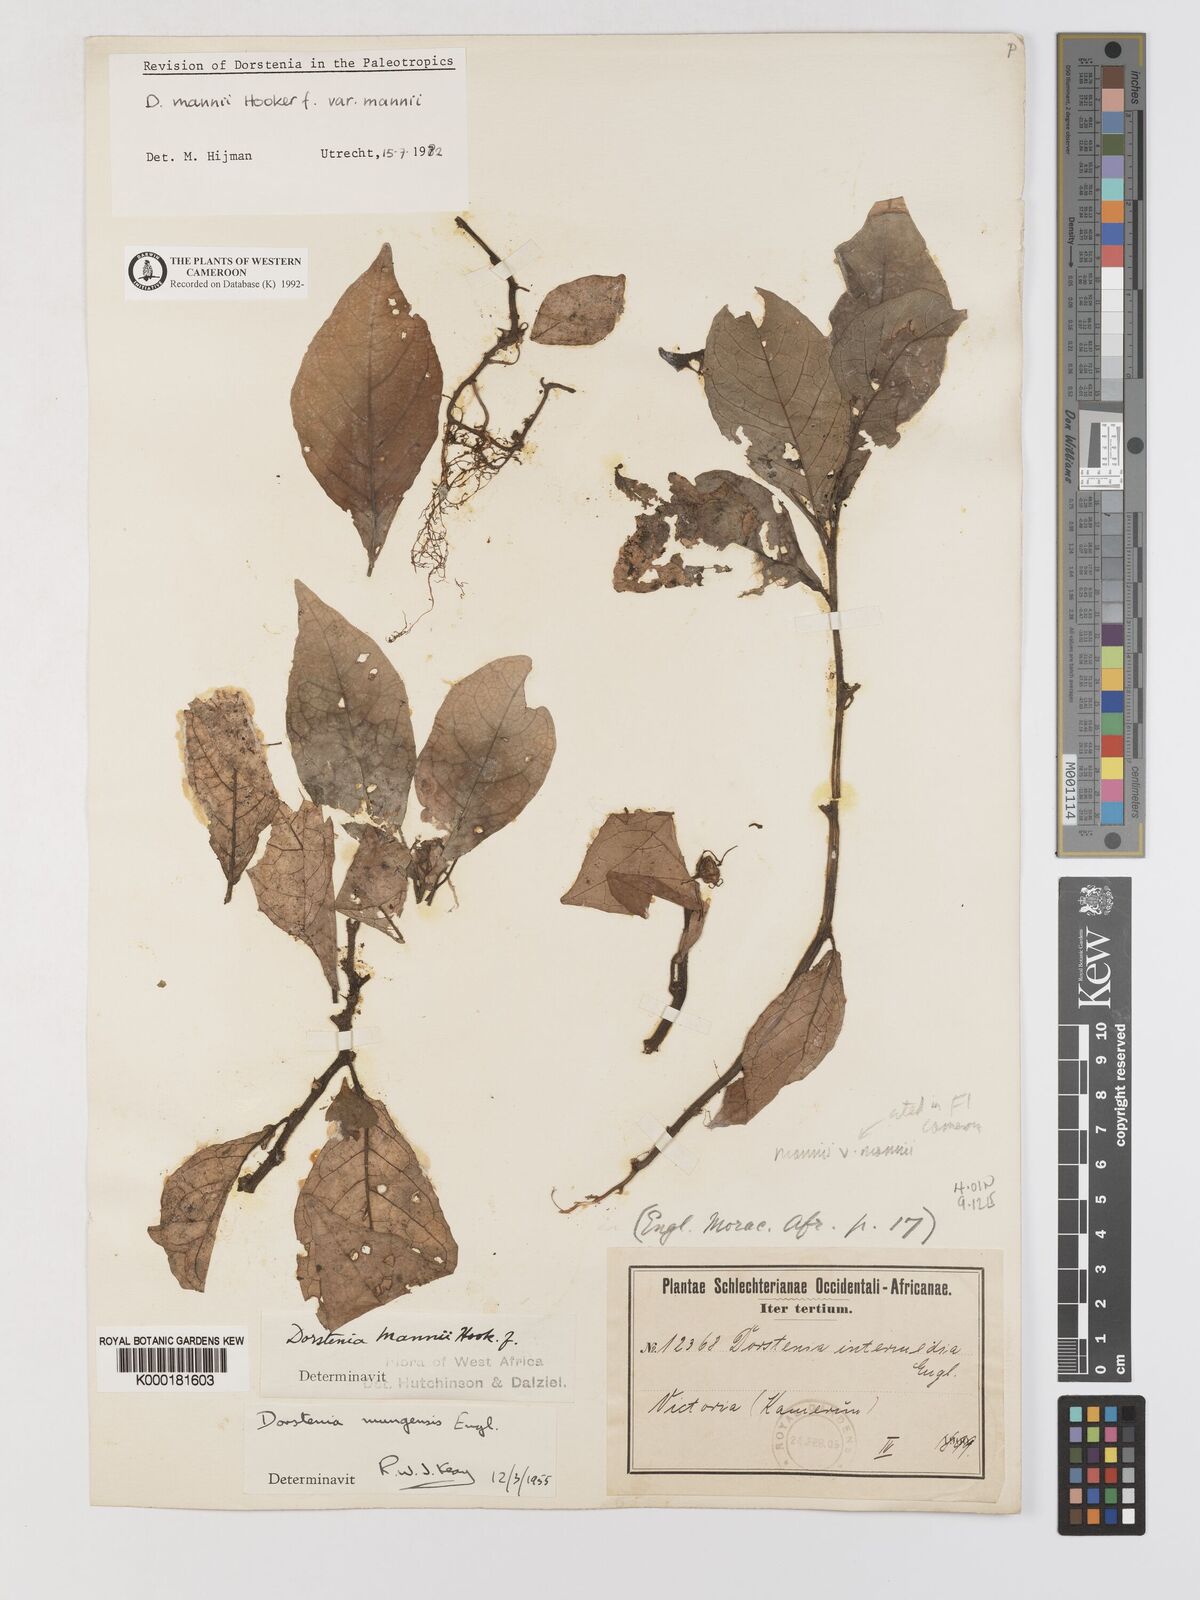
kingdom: Plantae
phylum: Tracheophyta
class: Magnoliopsida
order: Rosales
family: Moraceae
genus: Dorstenia
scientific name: Dorstenia mannii
